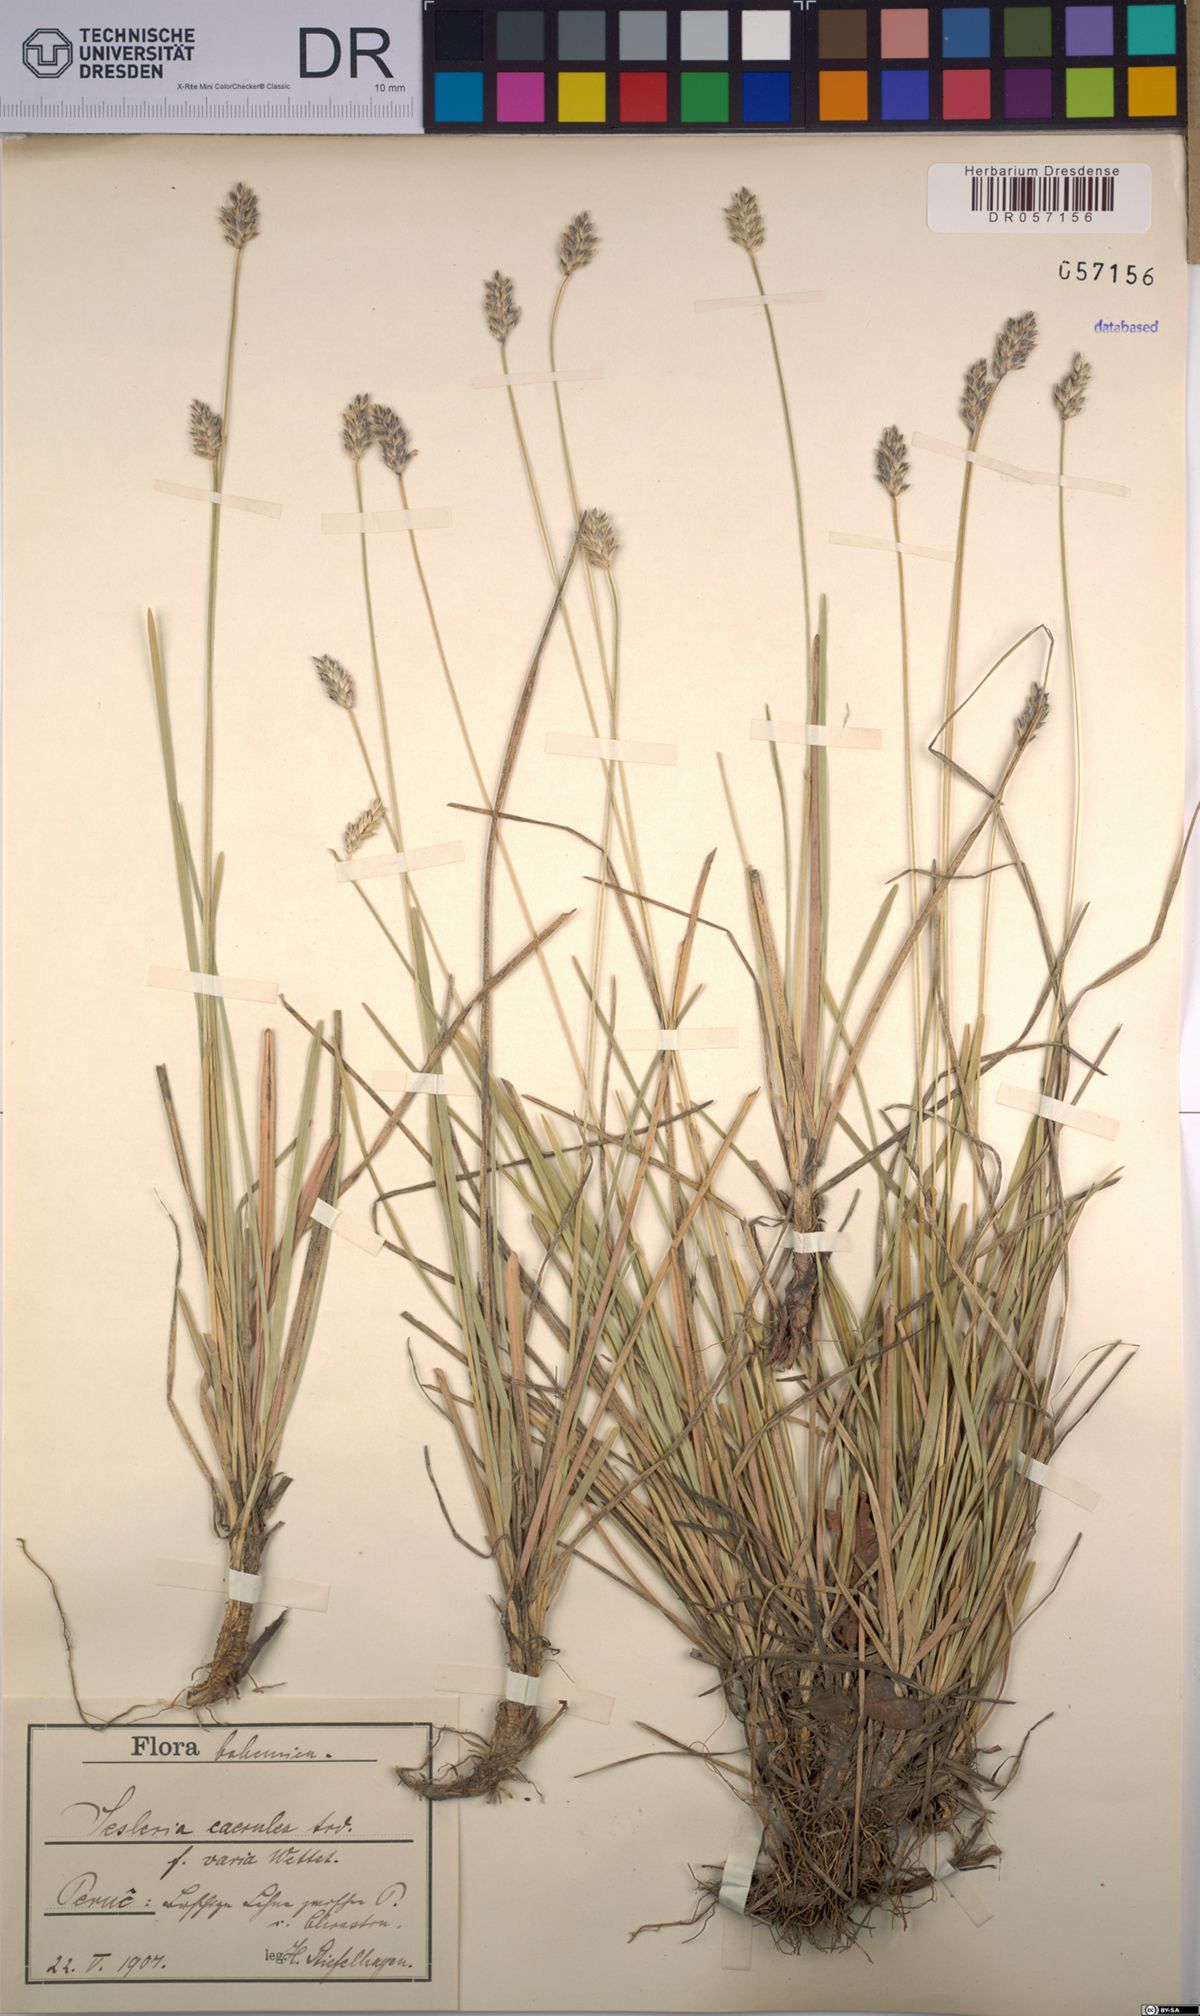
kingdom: Plantae
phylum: Tracheophyta
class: Liliopsida
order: Poales
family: Poaceae
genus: Sesleria
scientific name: Sesleria caerulea
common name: Blue moor-grass
